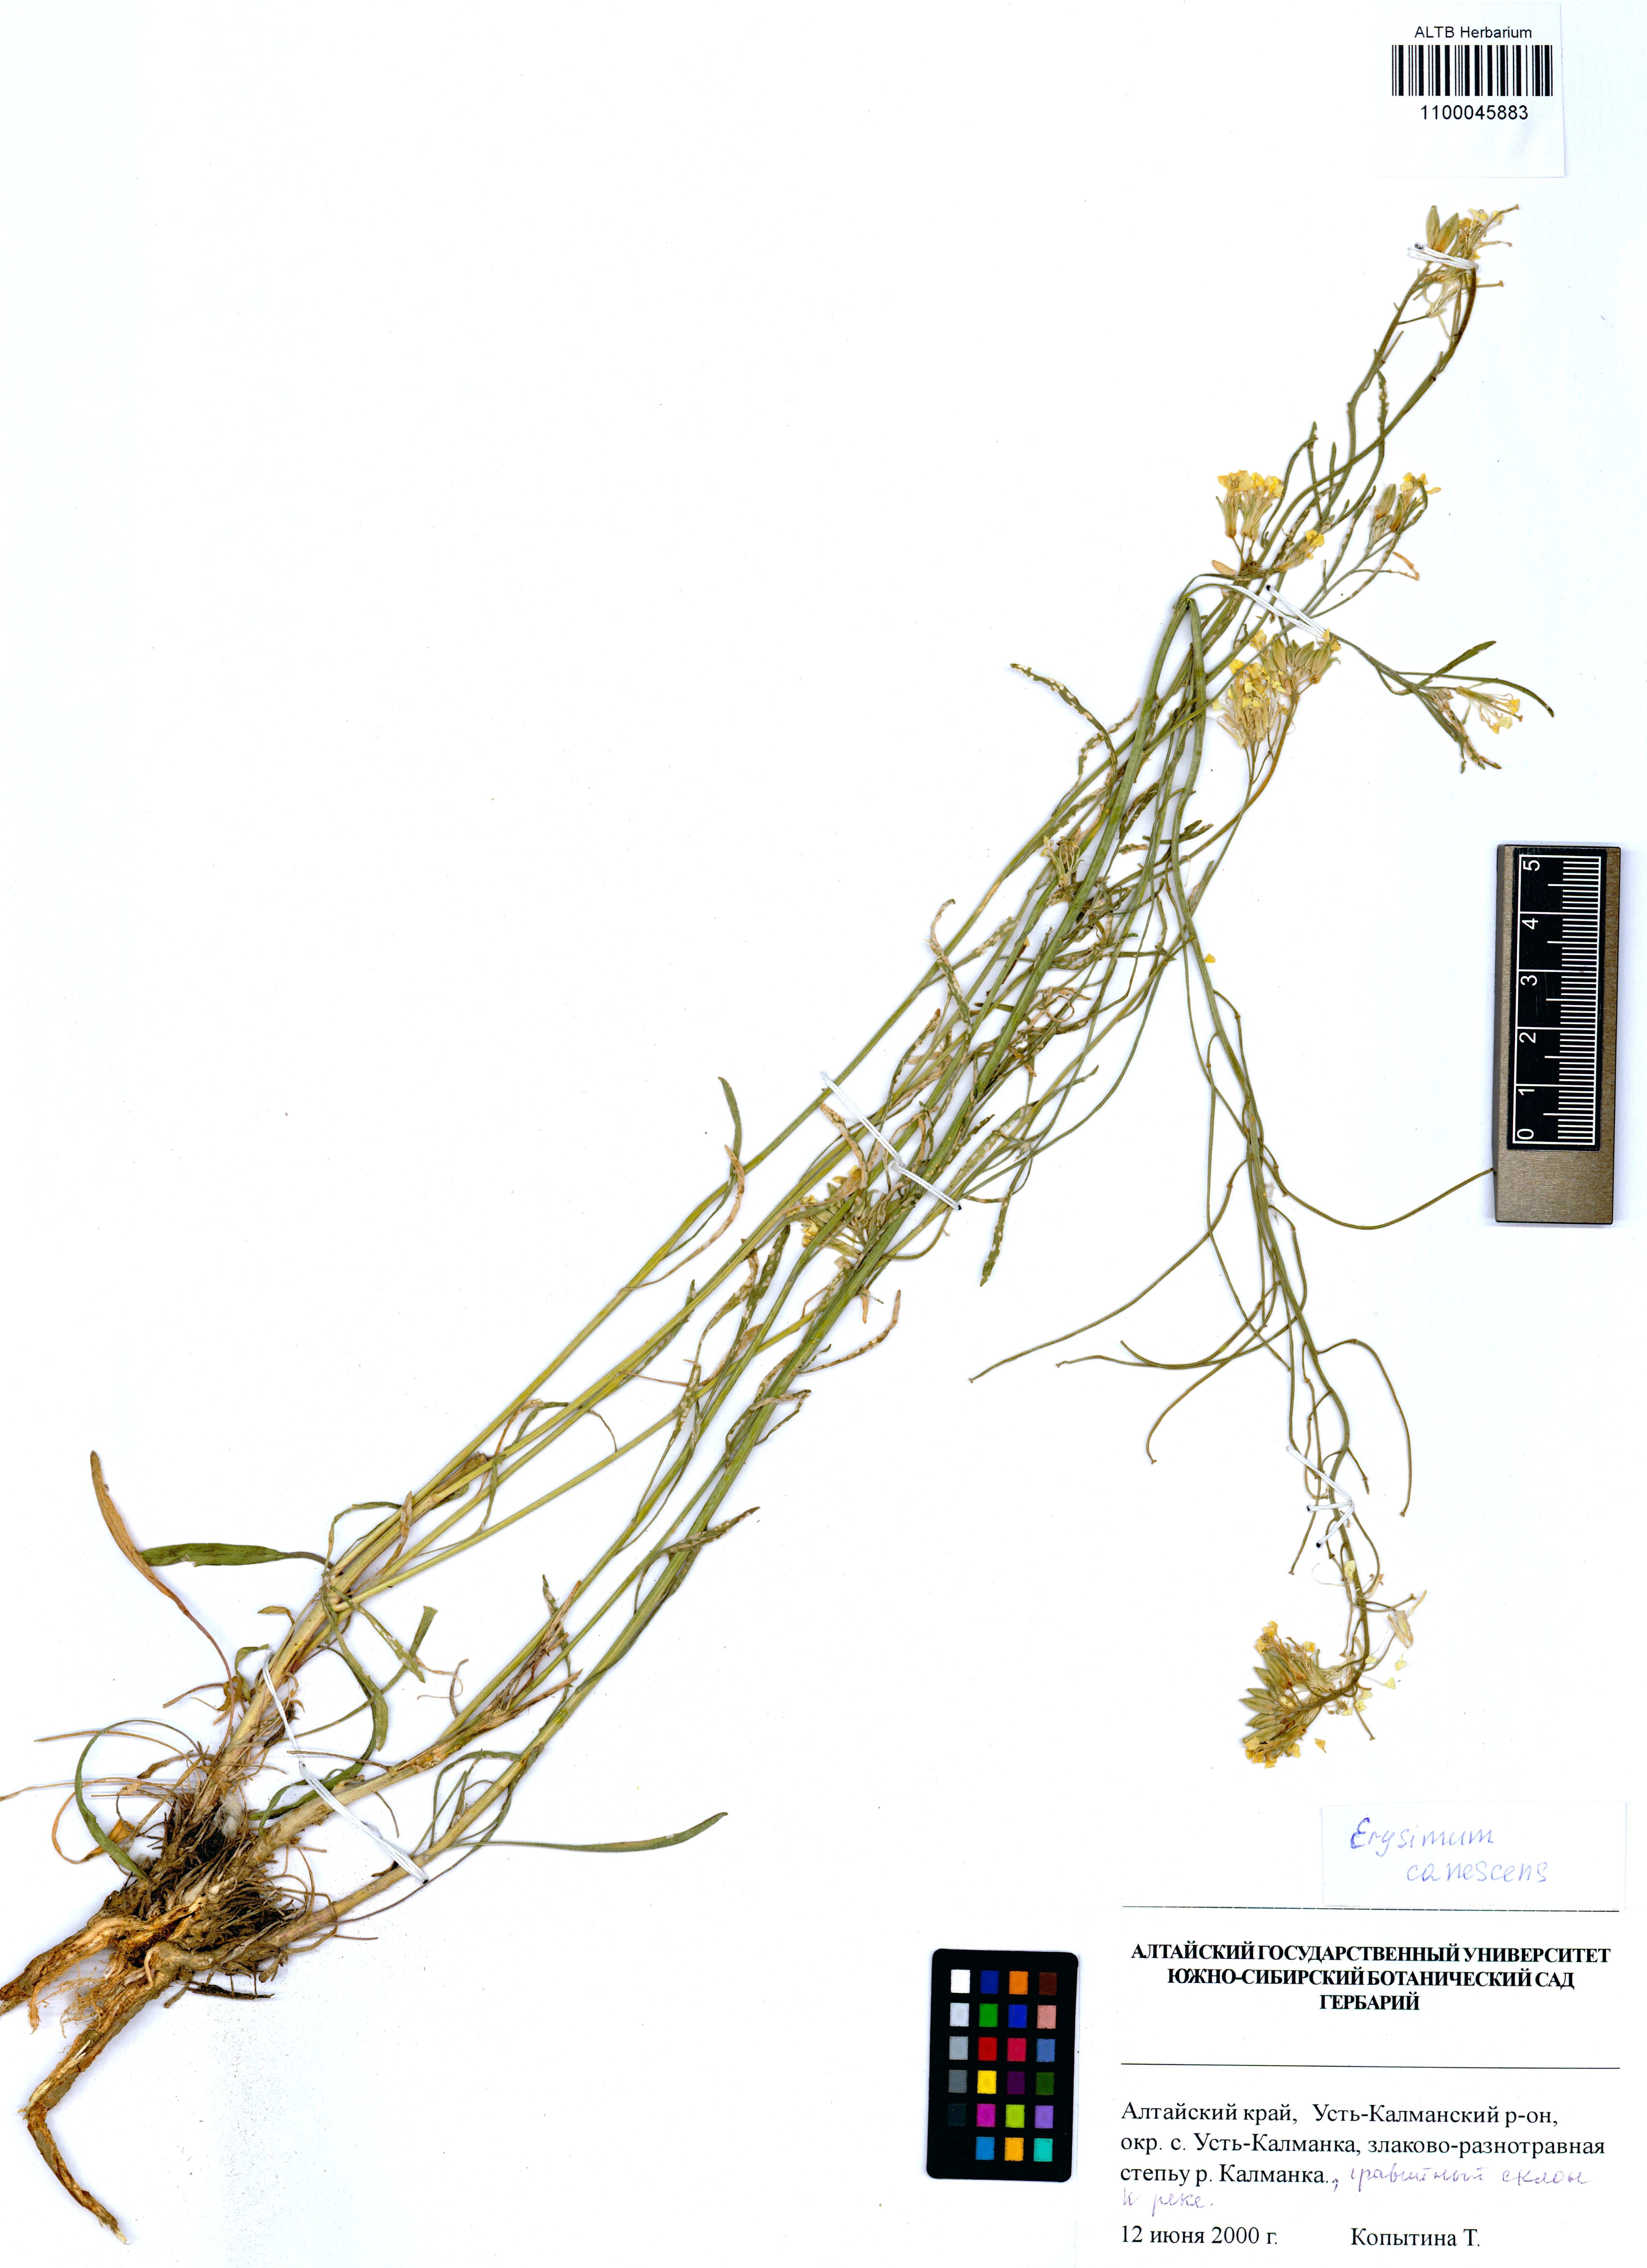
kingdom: Plantae
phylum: Tracheophyta
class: Magnoliopsida
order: Brassicales
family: Brassicaceae
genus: Erysimum
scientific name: Erysimum canescens
